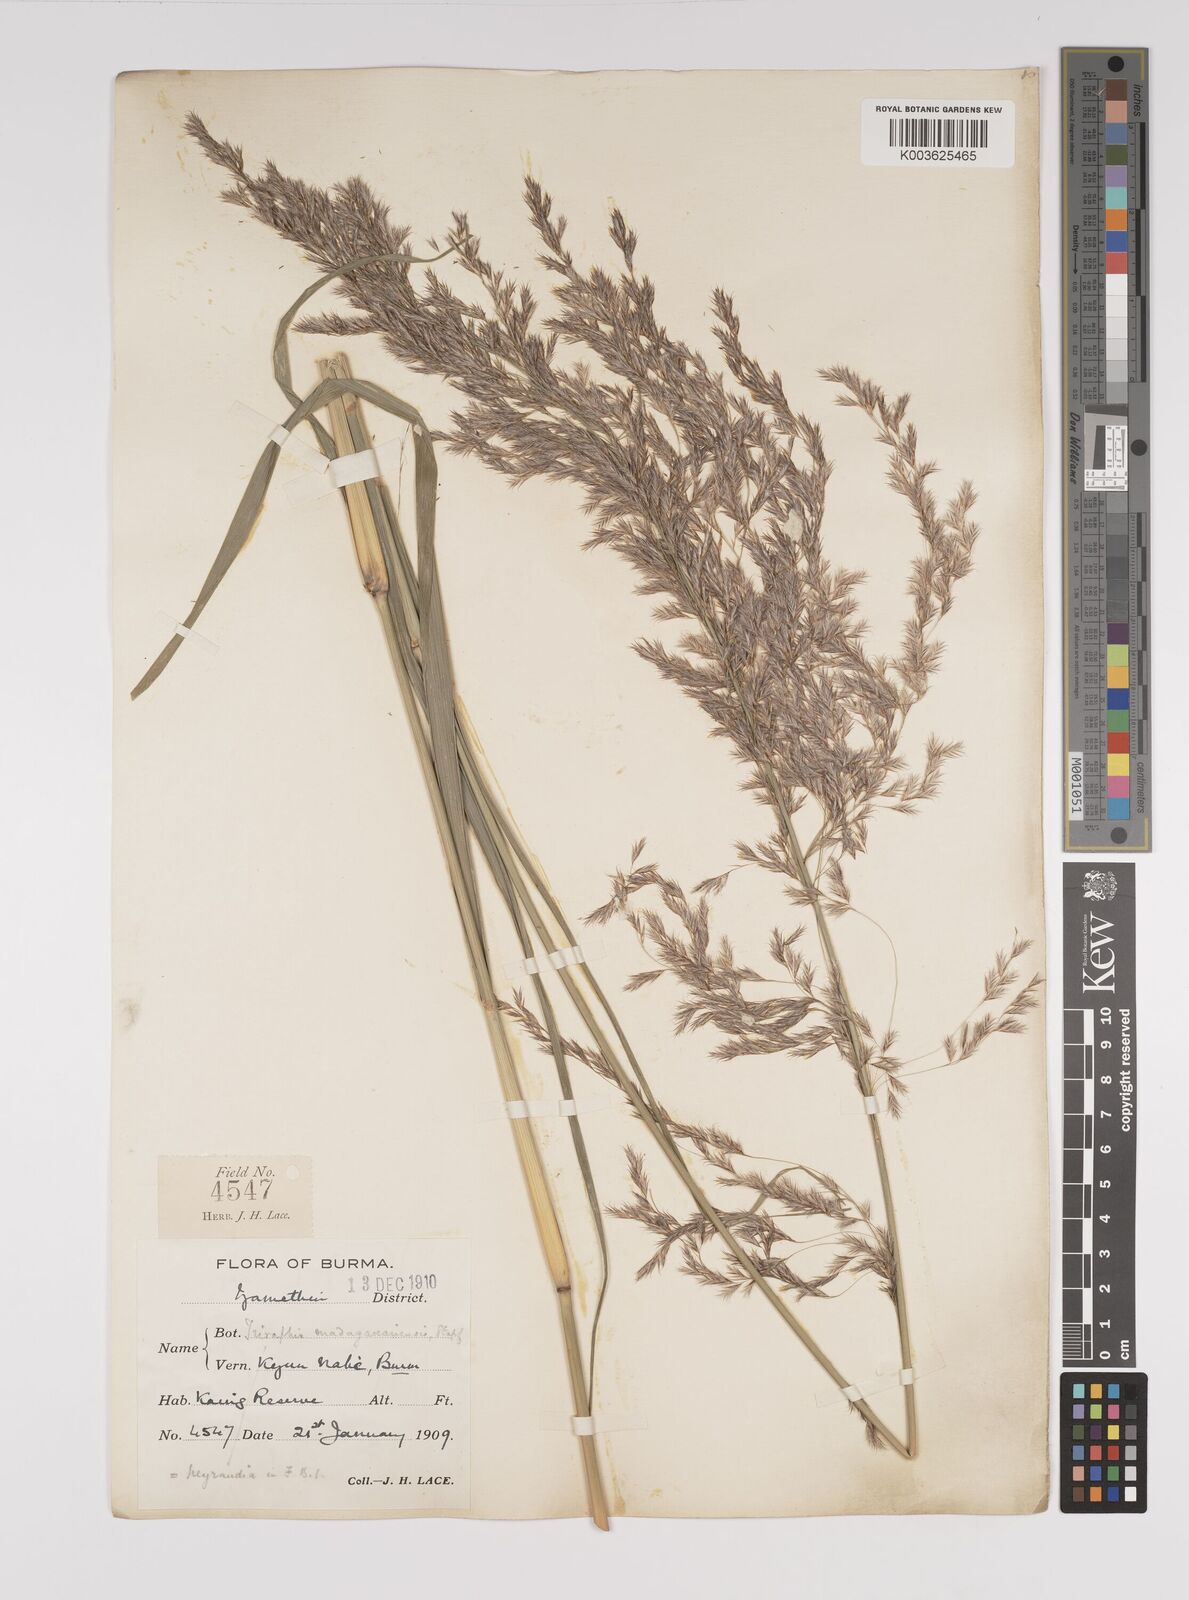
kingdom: Plantae
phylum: Tracheophyta
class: Liliopsida
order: Poales
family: Poaceae
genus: Neyraudia
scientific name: Neyraudia reynaudiana
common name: Silkreed
